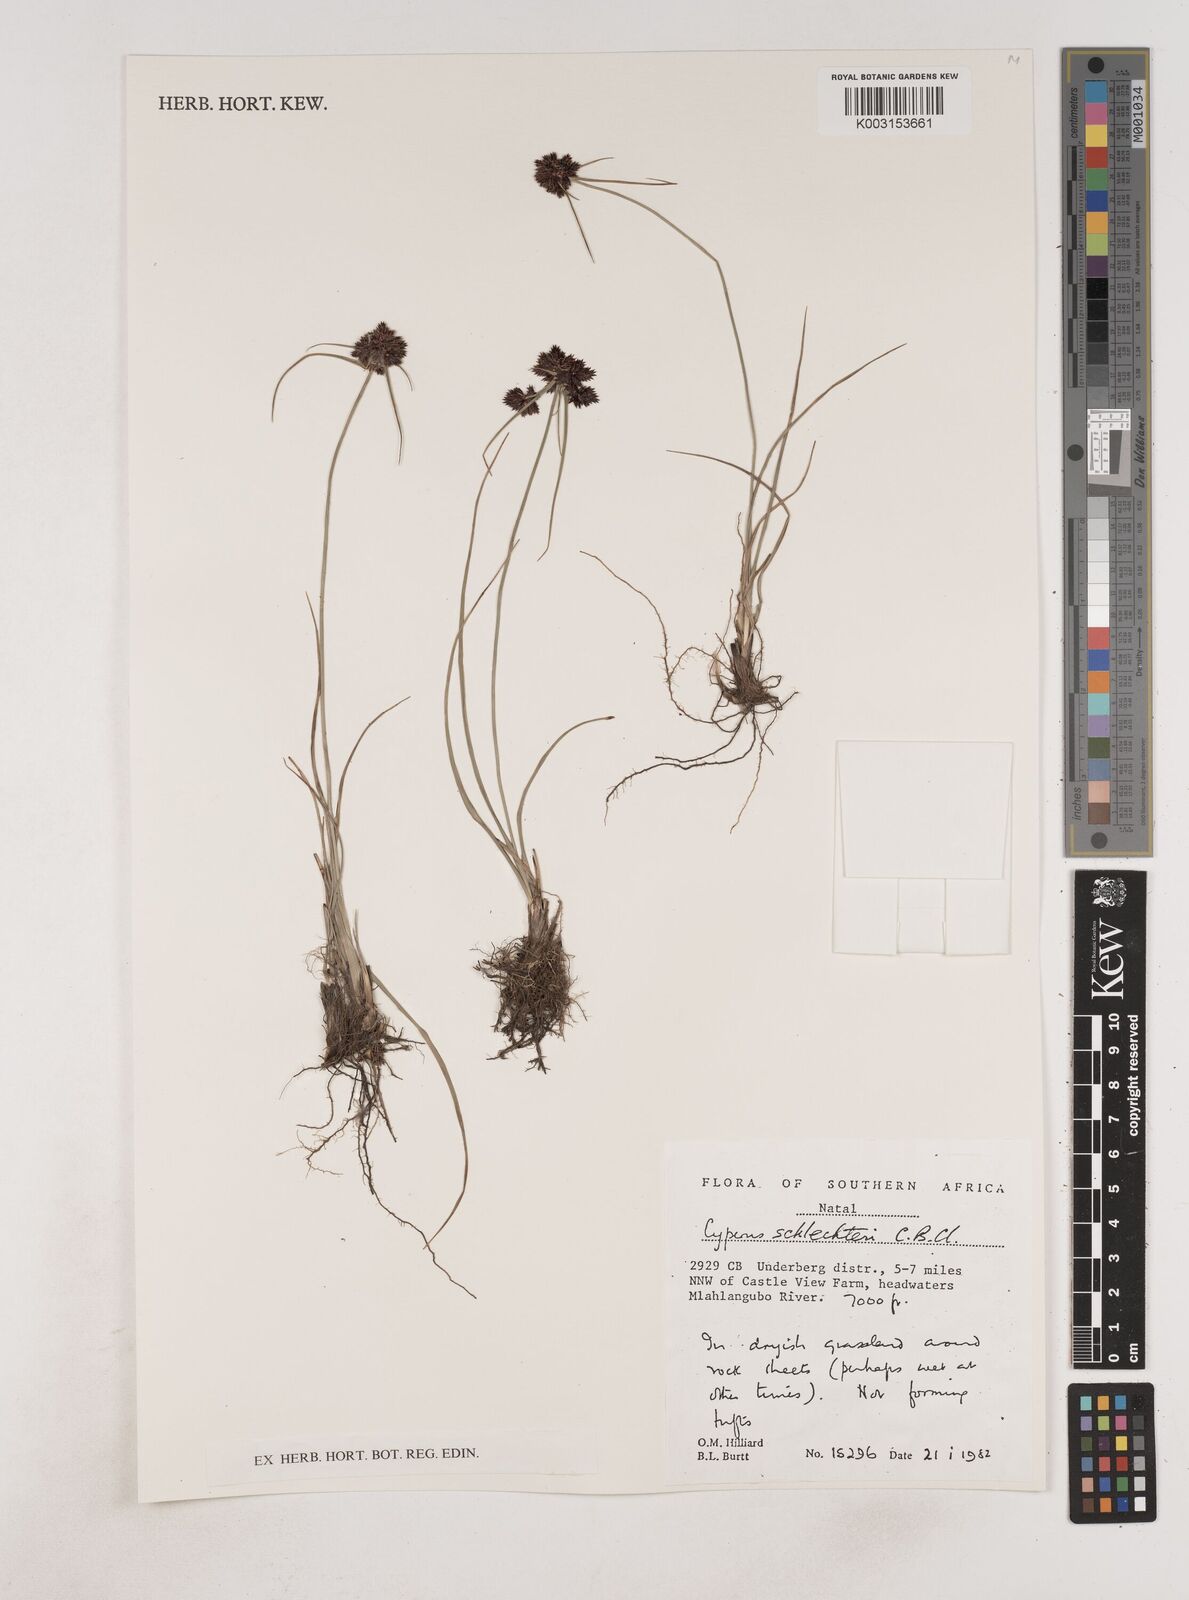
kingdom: Plantae
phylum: Tracheophyta
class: Liliopsida
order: Poales
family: Cyperaceae
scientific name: Cyperaceae
